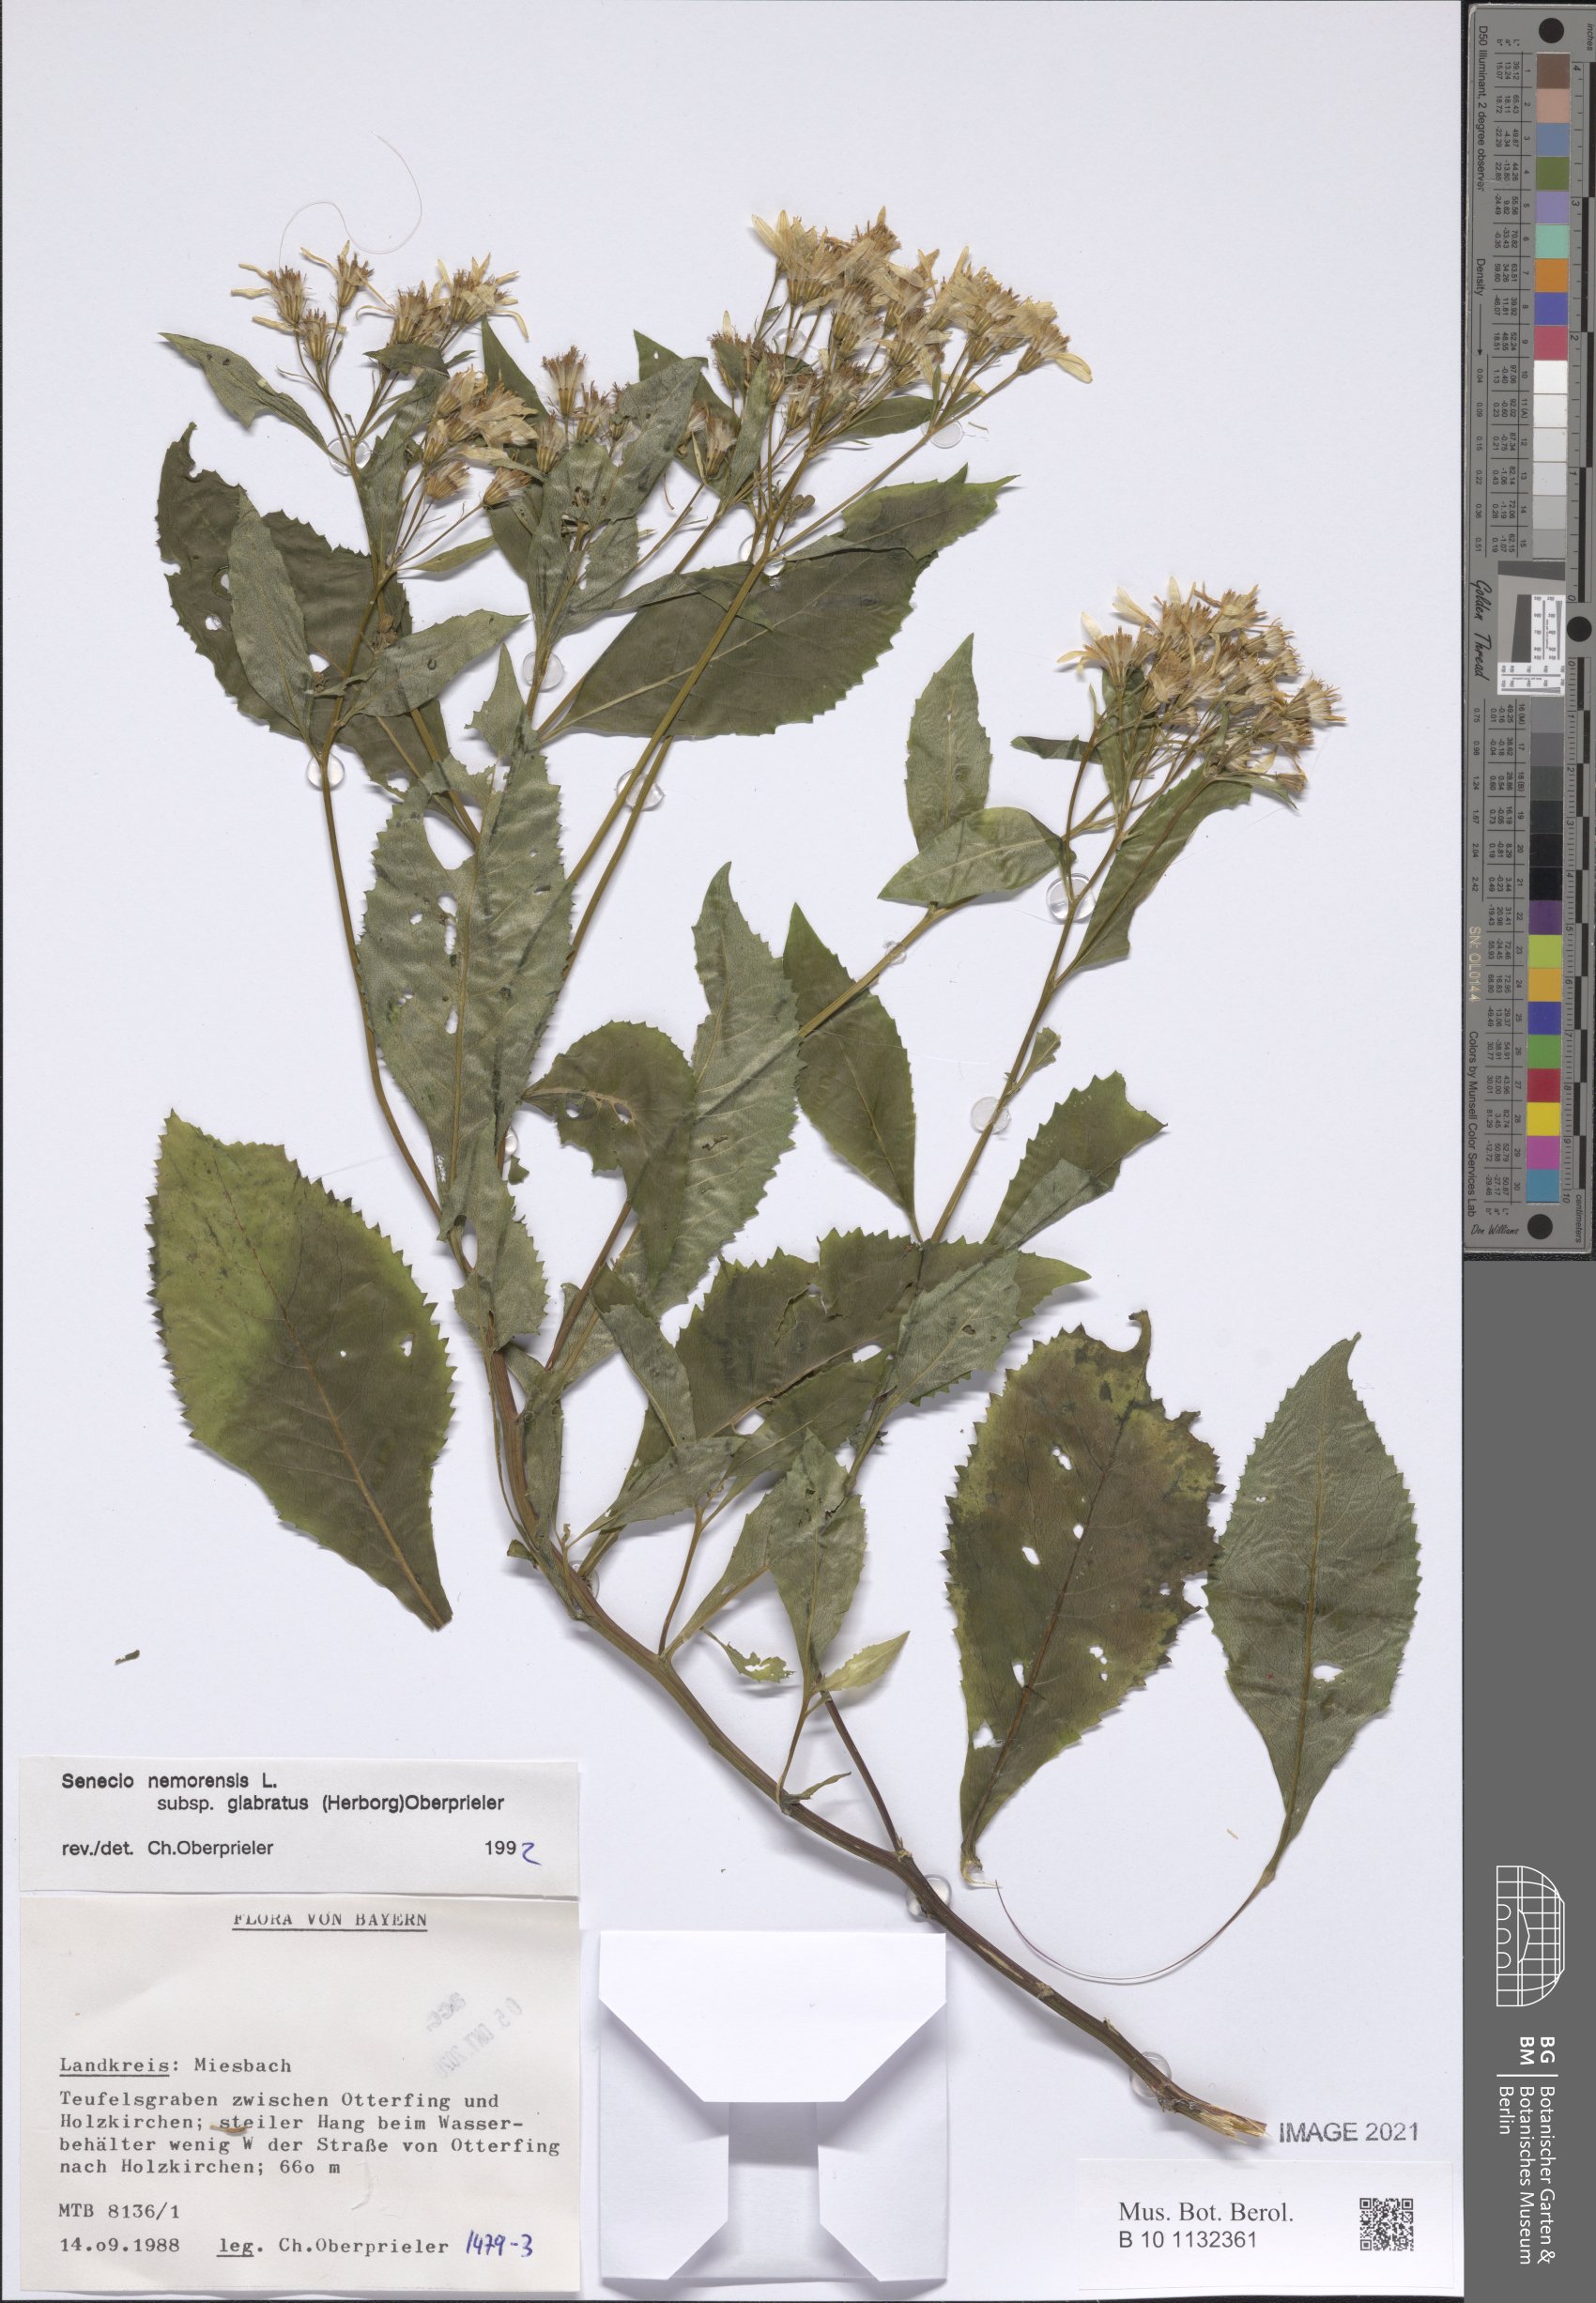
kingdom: Plantae
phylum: Tracheophyta
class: Magnoliopsida
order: Asterales
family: Asteraceae
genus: Senecio
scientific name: Senecio germanicus
